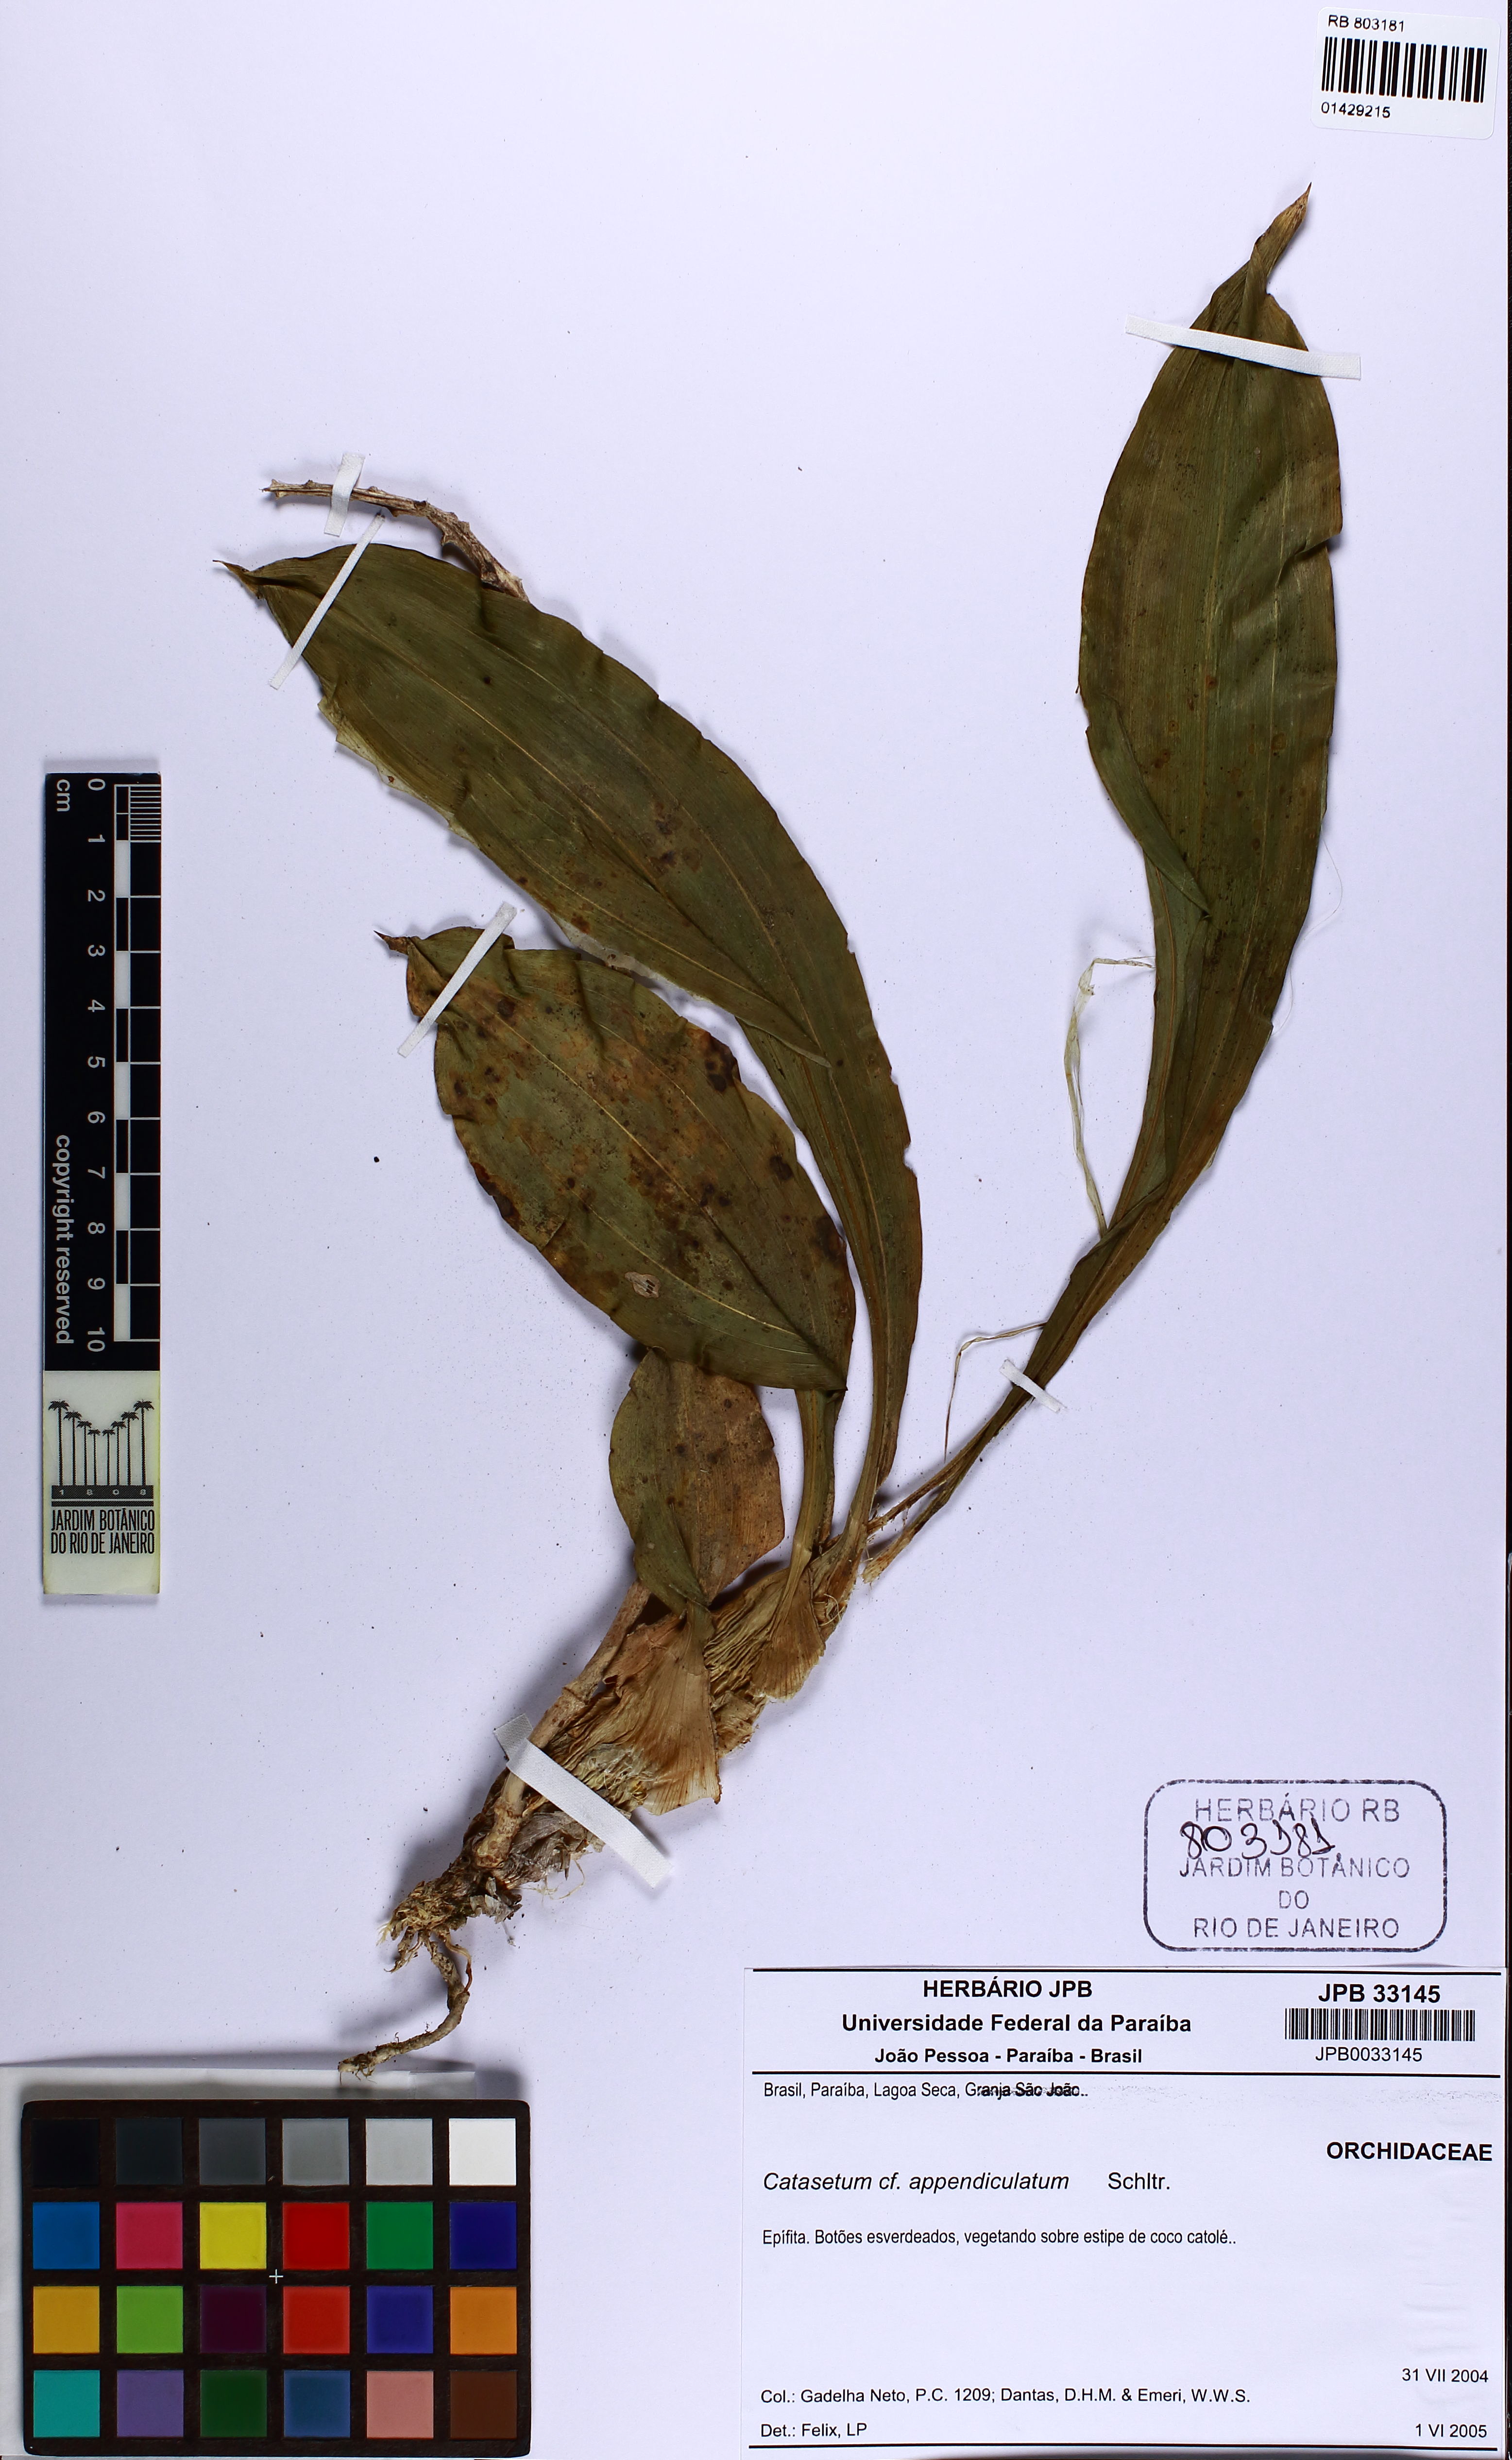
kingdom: Plantae
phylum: Tracheophyta
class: Liliopsida
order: Asparagales
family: Orchidaceae
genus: Catasetum
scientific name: Catasetum lanciferum
